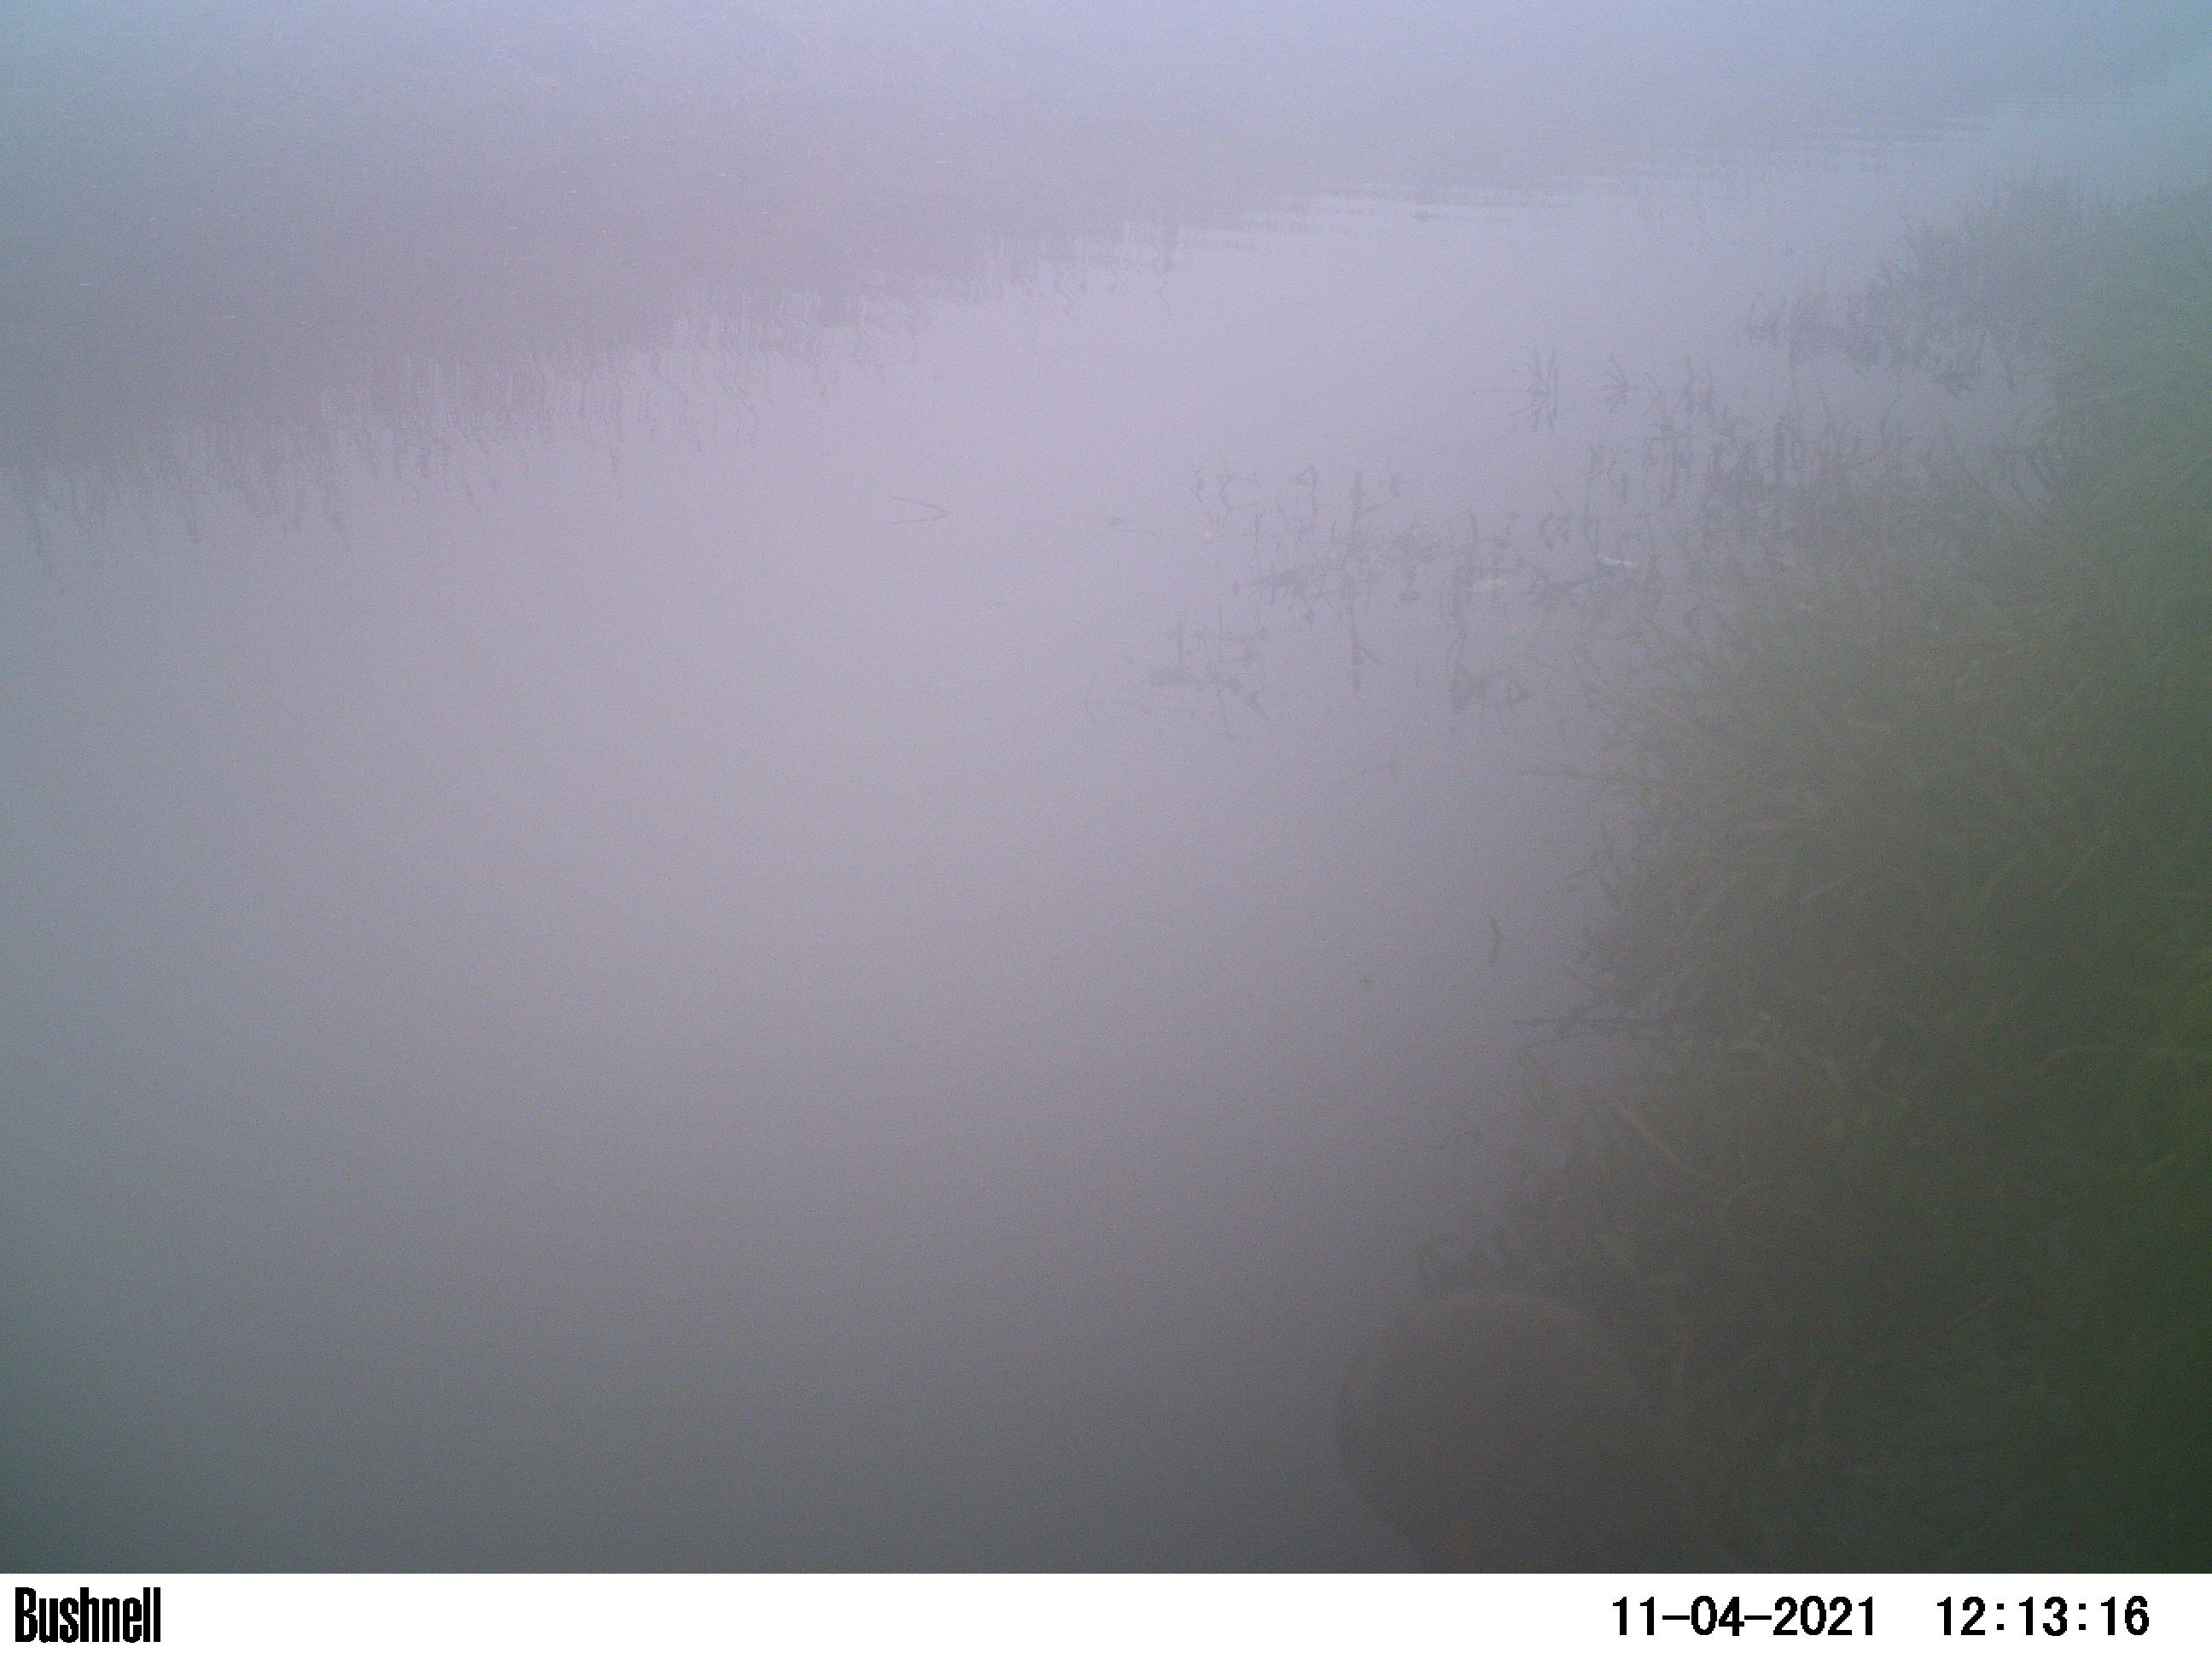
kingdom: Animalia
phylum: Chordata
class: Aves
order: Anseriformes
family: Anatidae
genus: Anas
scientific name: Anas
